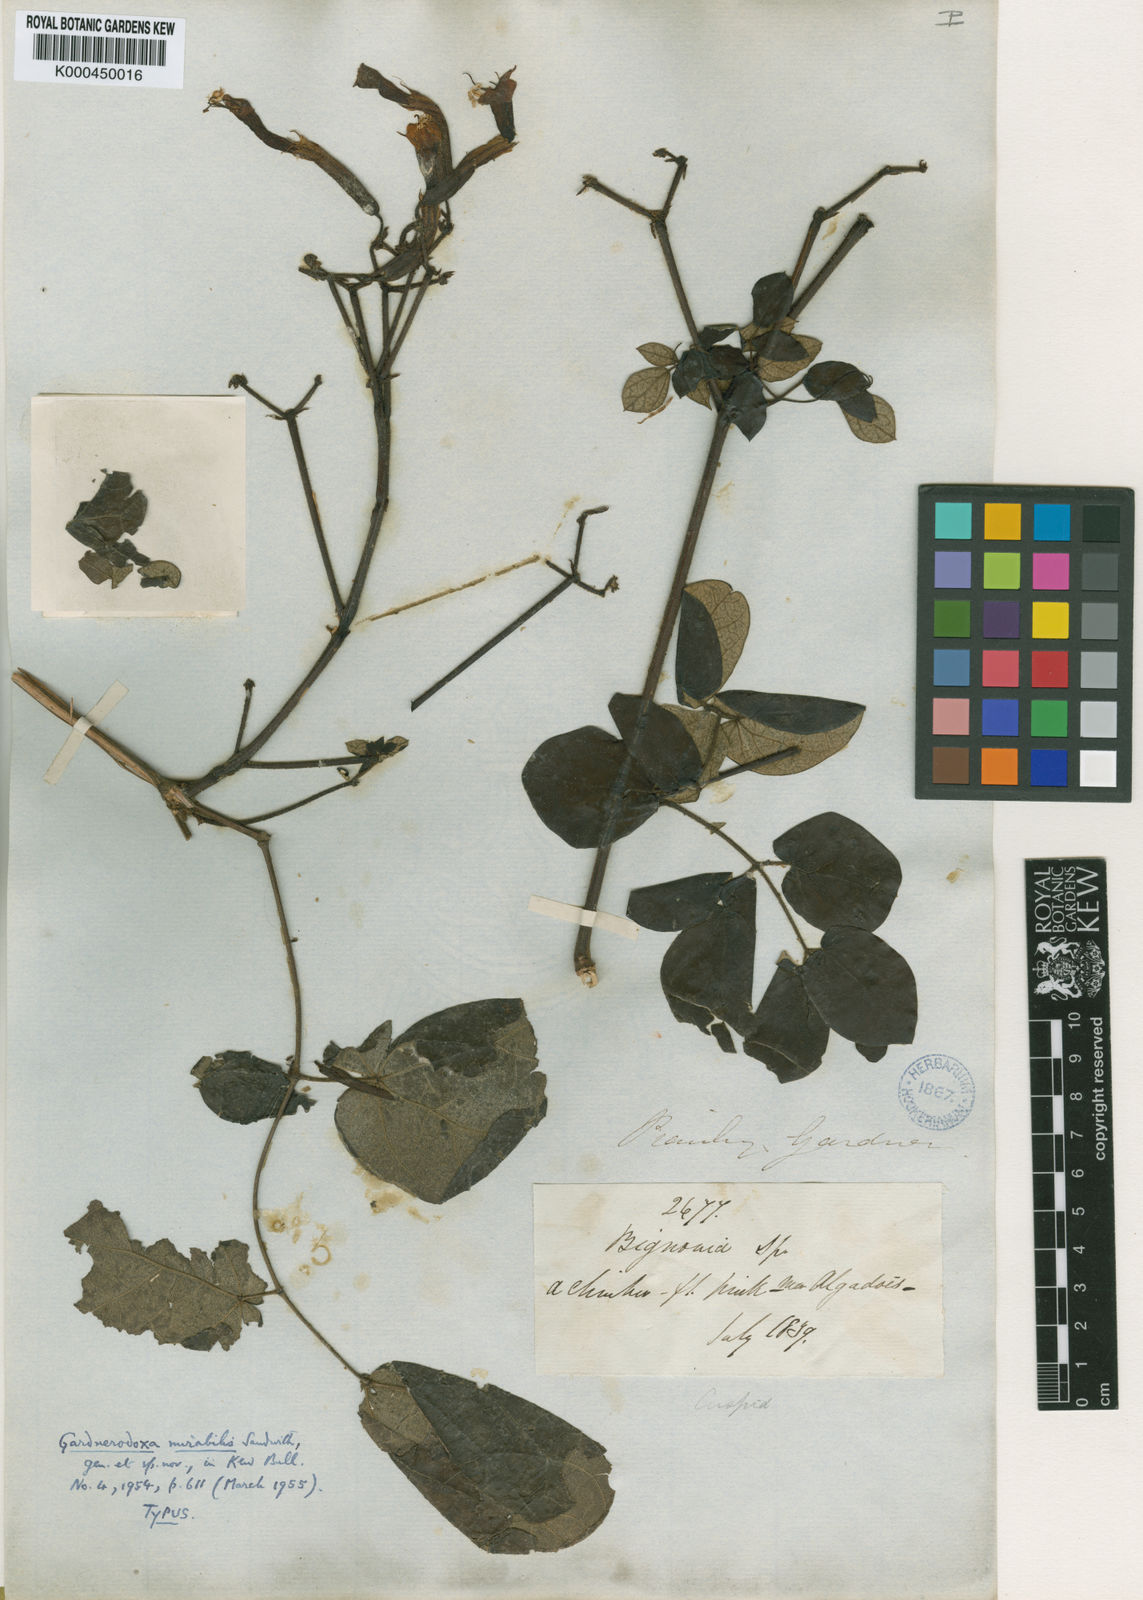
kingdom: Plantae
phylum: Tracheophyta
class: Magnoliopsida
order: Lamiales
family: Bignoniaceae
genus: Adenocalymma
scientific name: Adenocalymma mirabile
